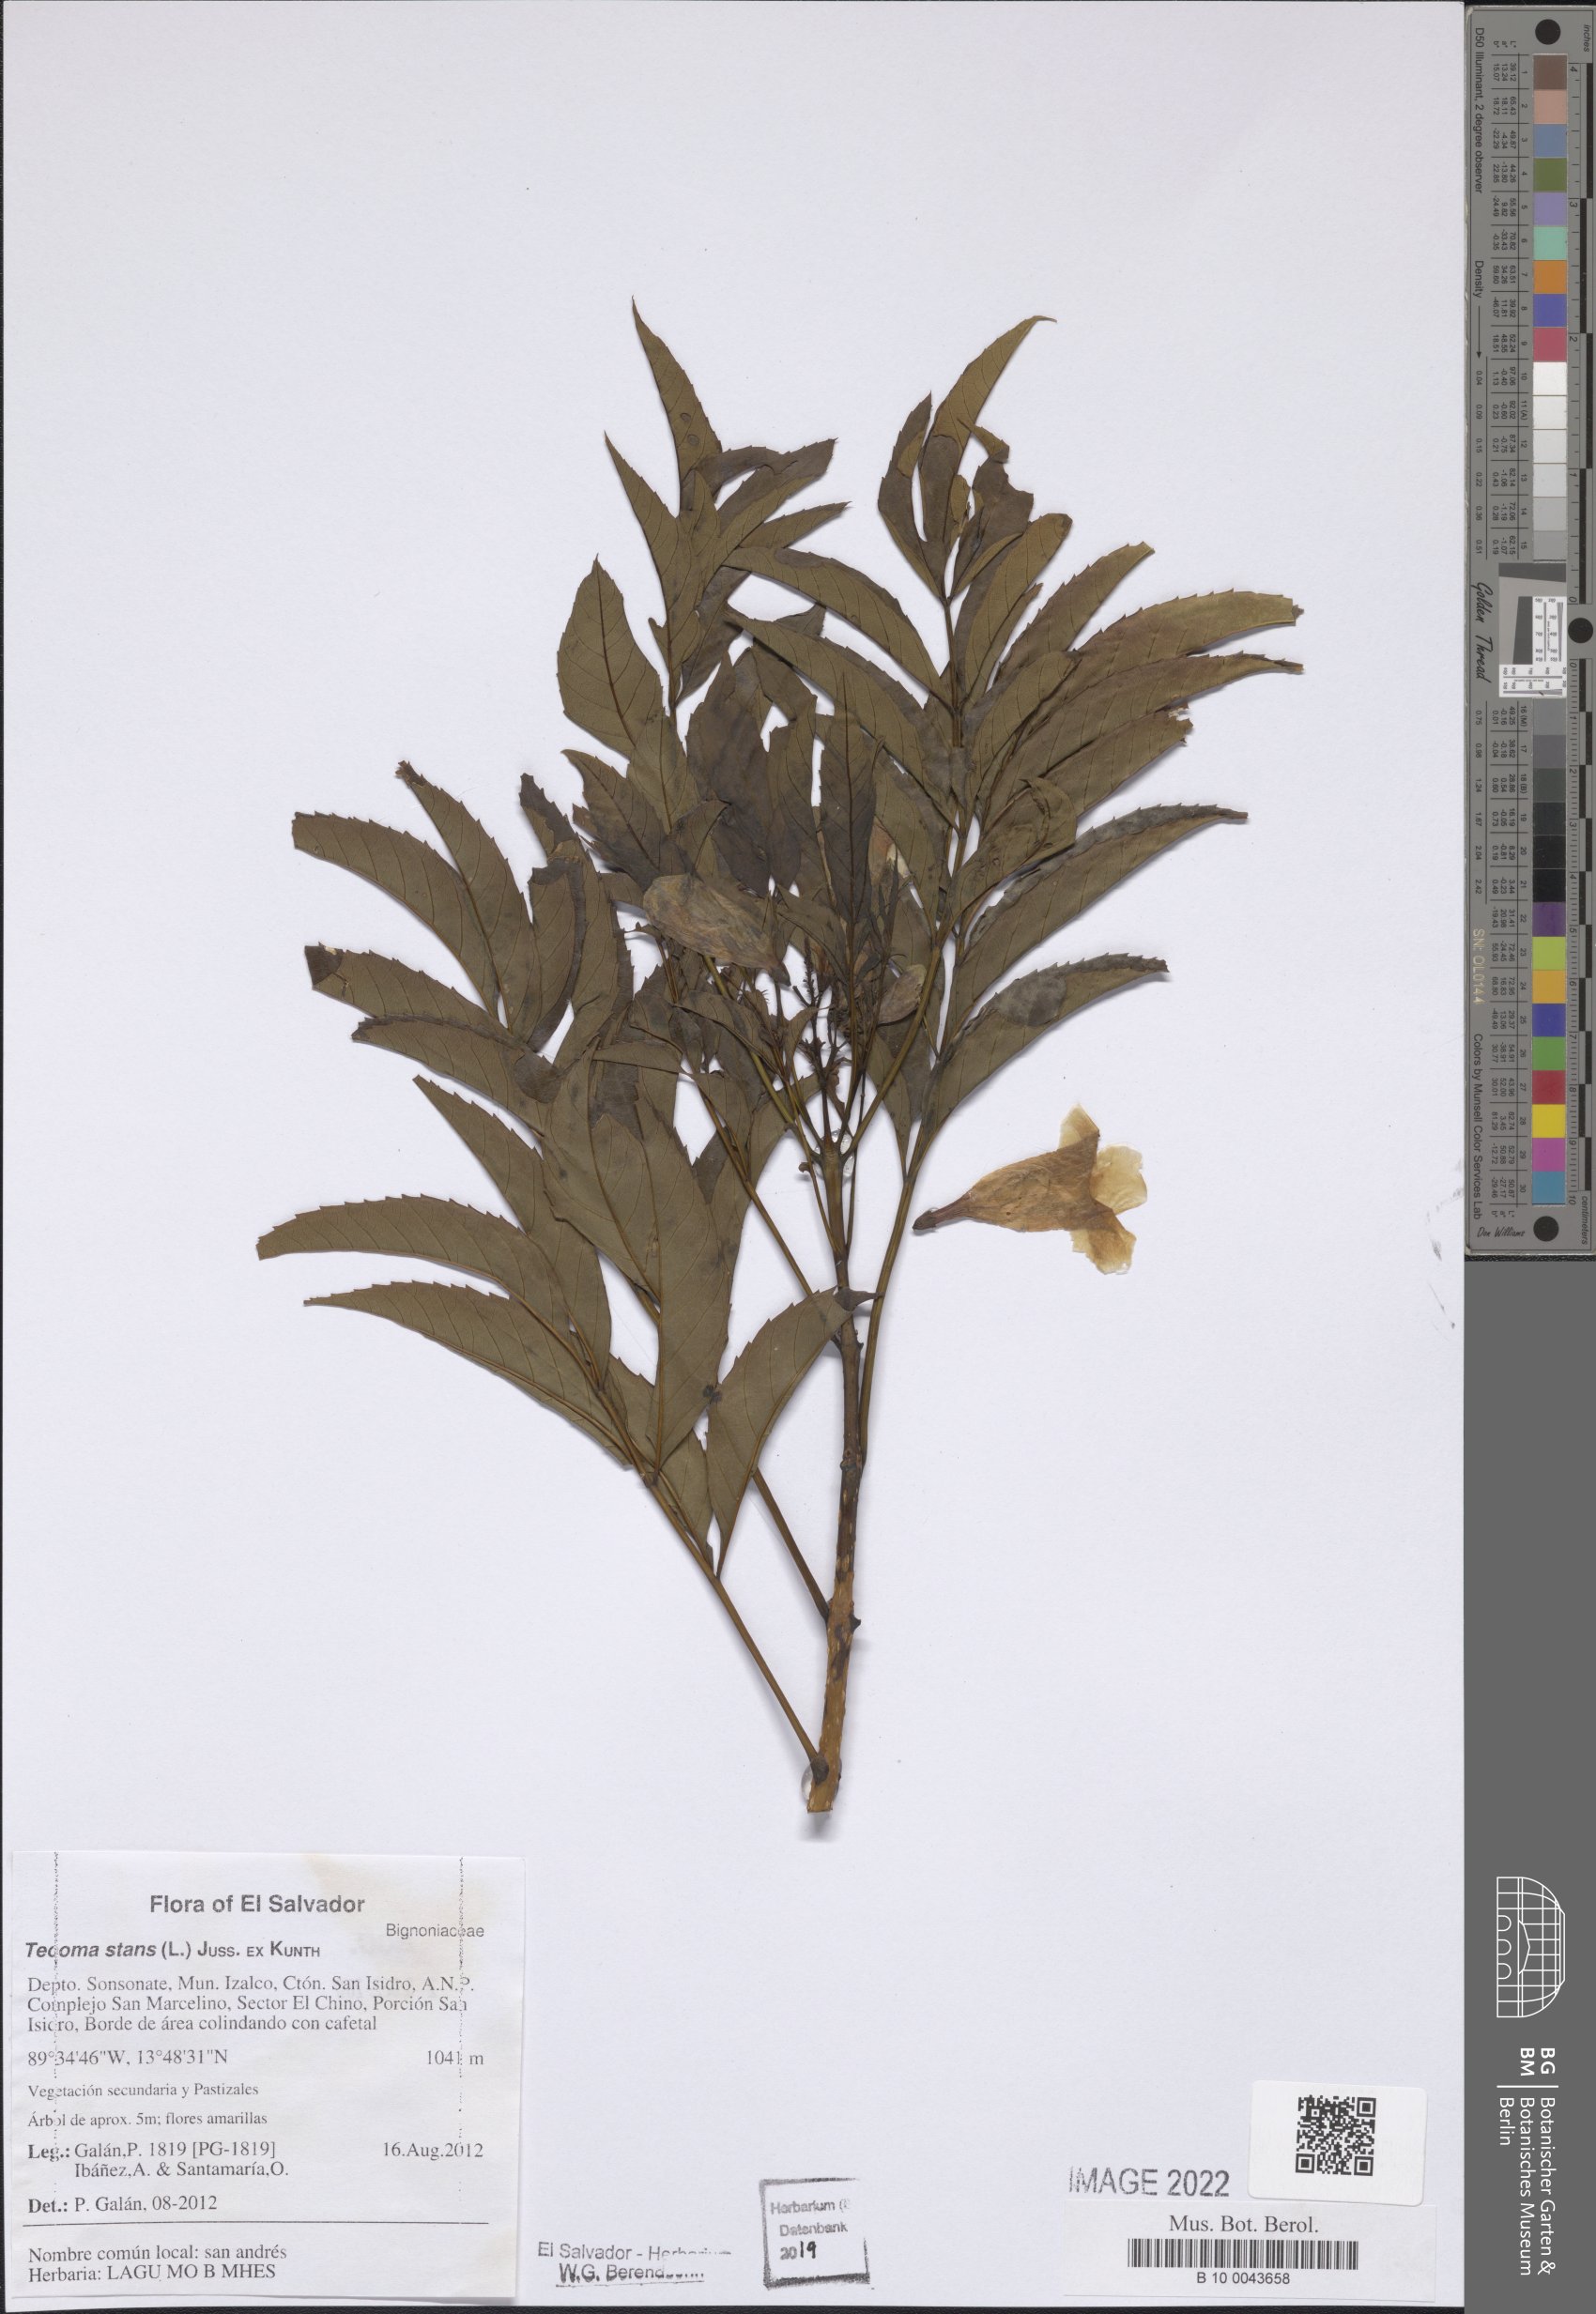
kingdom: Plantae
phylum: Tracheophyta
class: Magnoliopsida
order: Lamiales
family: Bignoniaceae
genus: Tecoma
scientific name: Tecoma stans
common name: Yellow trumpetbush
